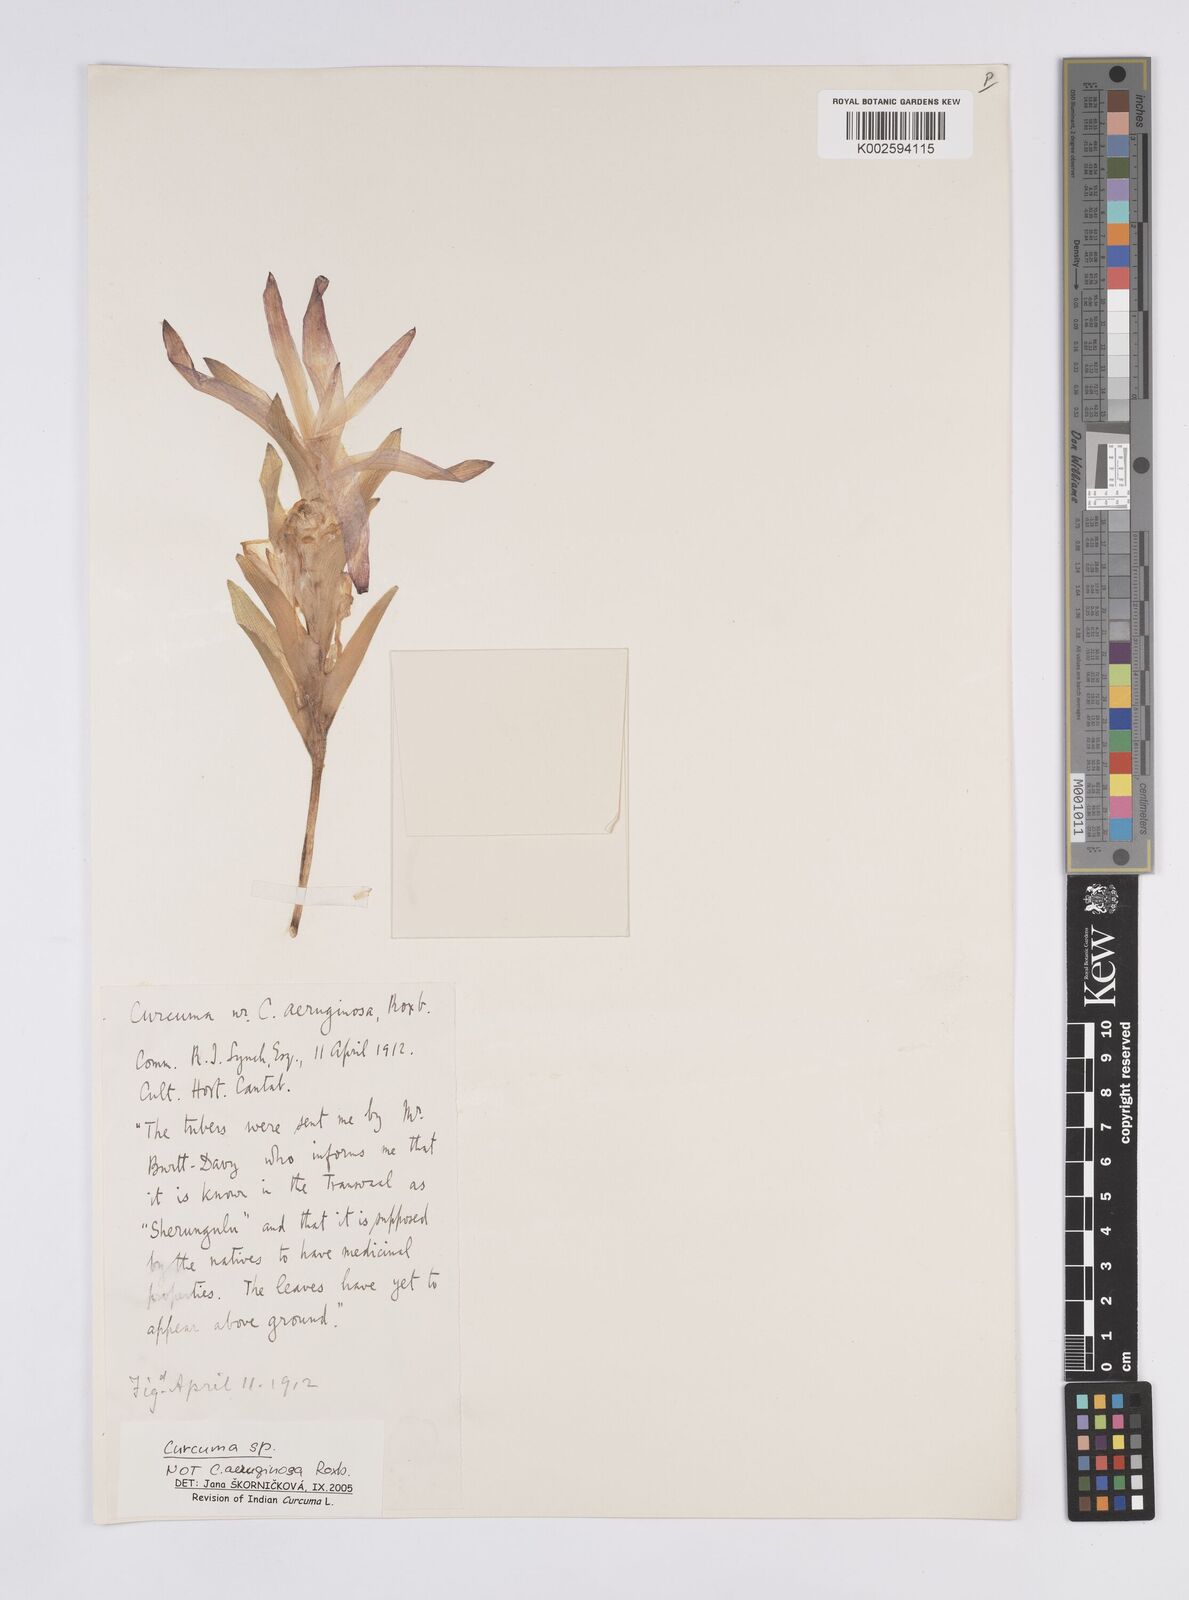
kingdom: Plantae
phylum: Tracheophyta
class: Liliopsida
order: Zingiberales
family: Zingiberaceae
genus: Curcuma
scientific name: Curcuma
